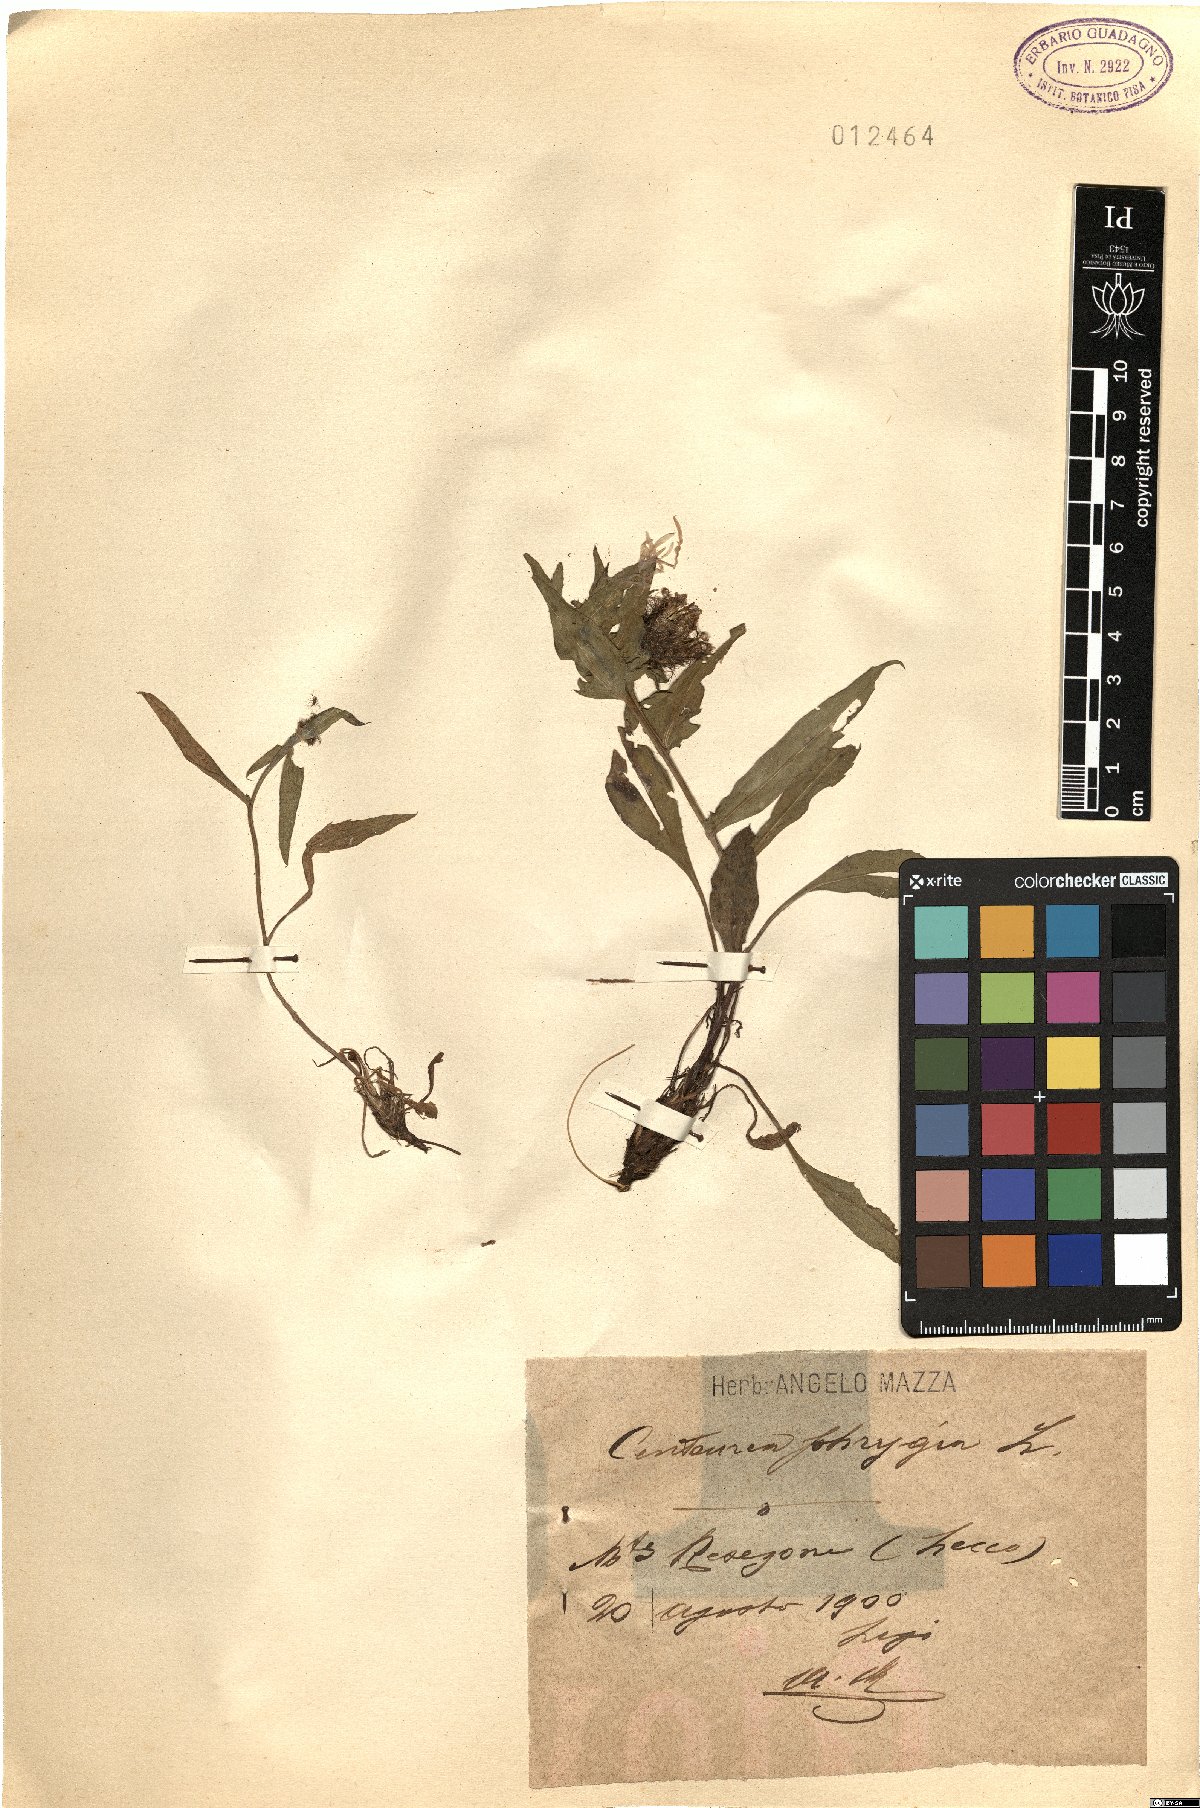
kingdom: Plantae
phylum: Tracheophyta
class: Magnoliopsida
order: Asterales
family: Asteraceae
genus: Centaurea
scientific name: Centaurea phrygia
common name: Wig knapweed
